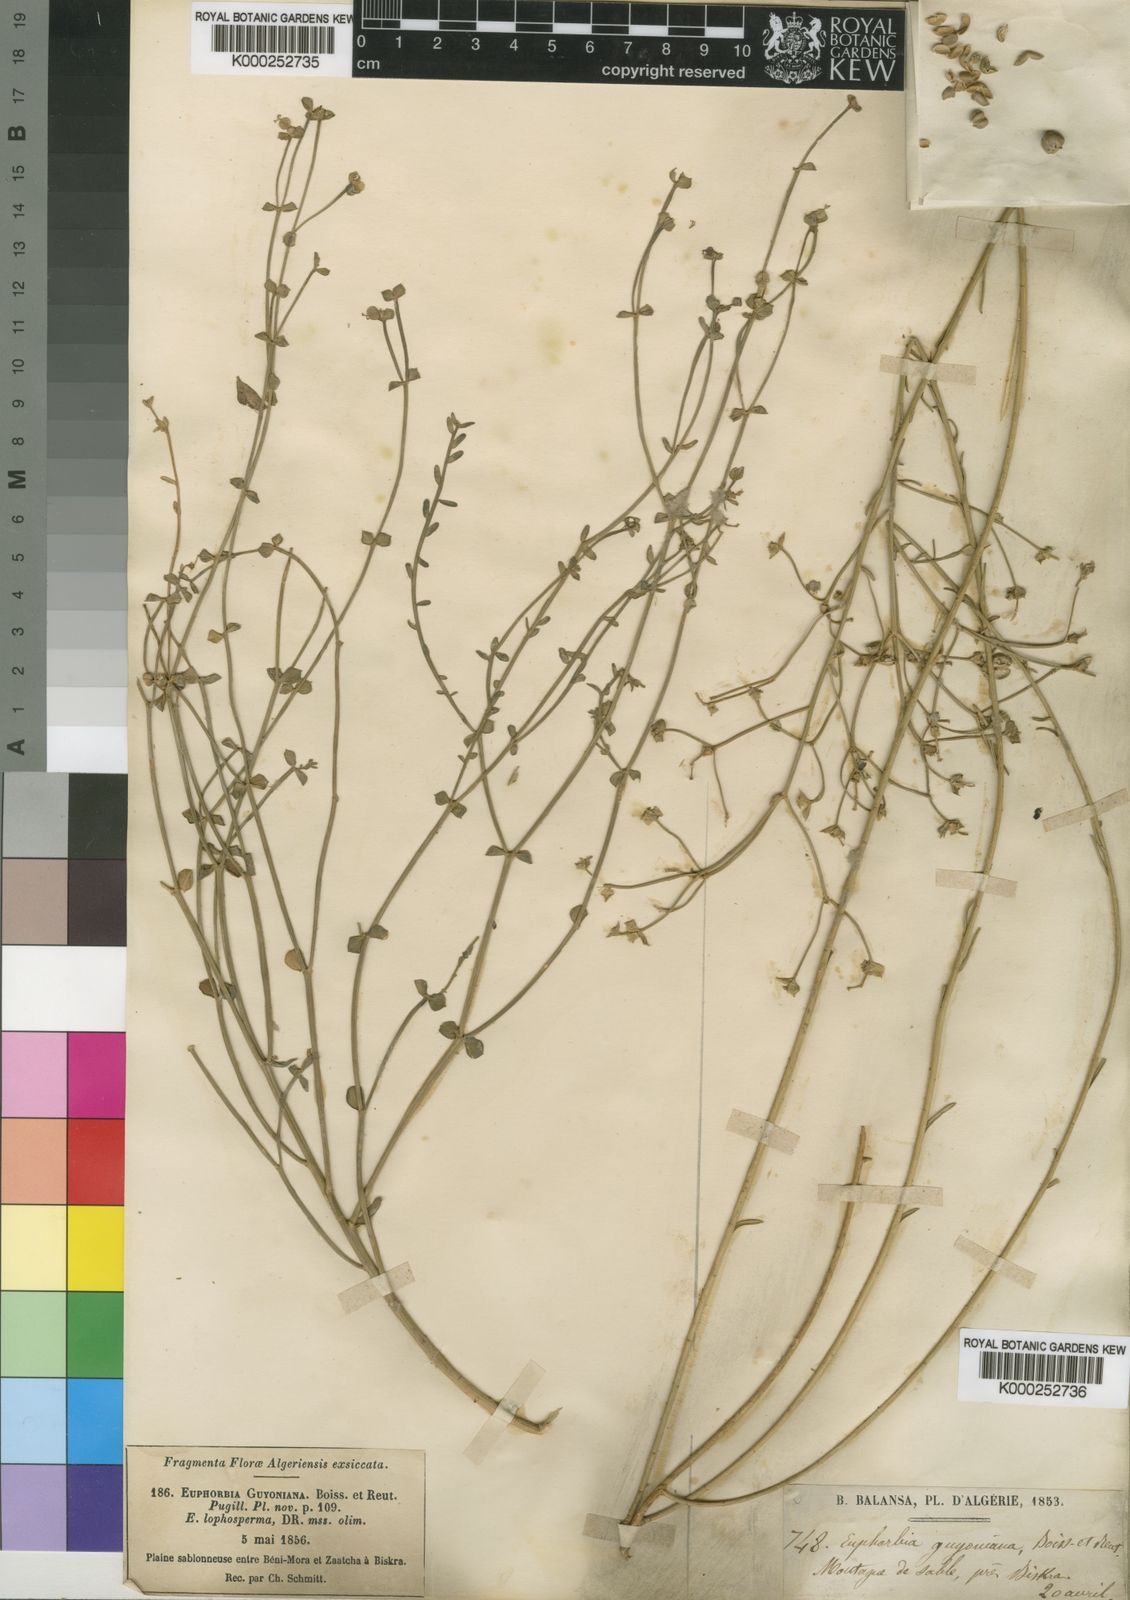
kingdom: Plantae
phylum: Tracheophyta
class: Magnoliopsida
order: Malpighiales
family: Euphorbiaceae
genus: Euphorbia
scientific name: Euphorbia guyoniana
